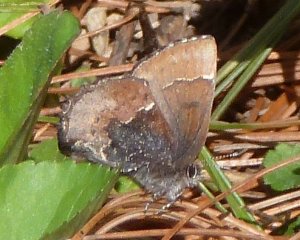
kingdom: Animalia
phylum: Arthropoda
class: Insecta
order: Lepidoptera
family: Lycaenidae
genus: Incisalia
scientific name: Incisalia henrici
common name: Henry's Elfin
